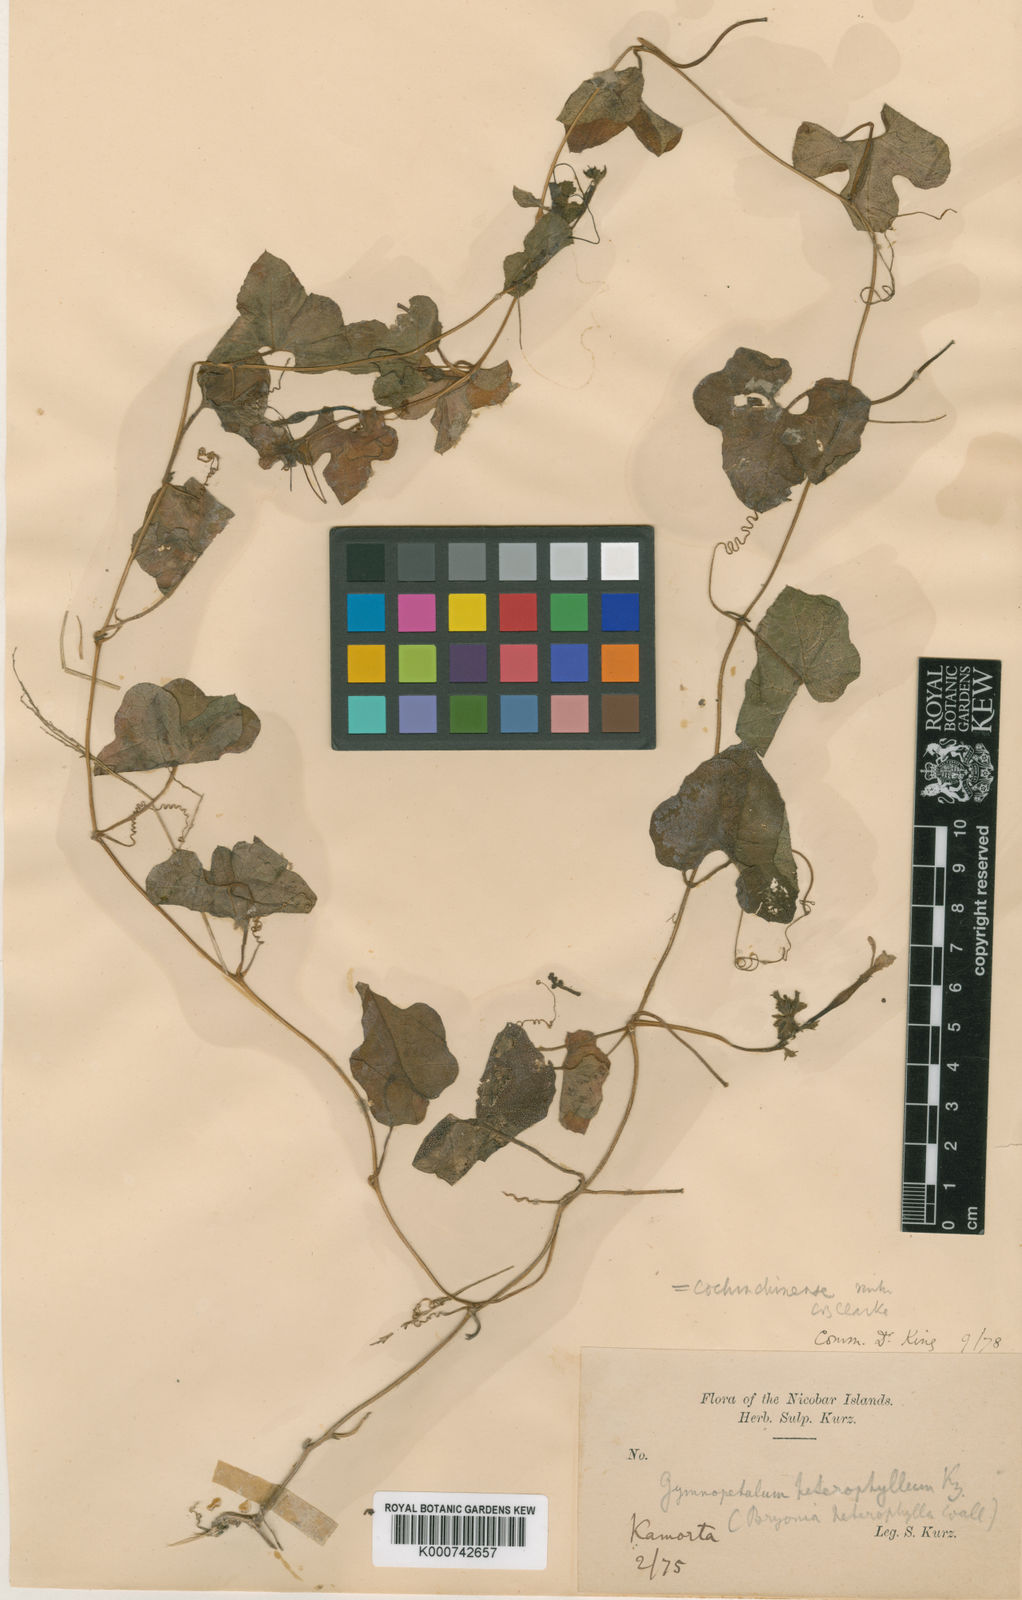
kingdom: Plantae
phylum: Tracheophyta
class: Magnoliopsida
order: Cucurbitales
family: Cucurbitaceae
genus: Trichosanthes
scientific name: Trichosanthes costata
